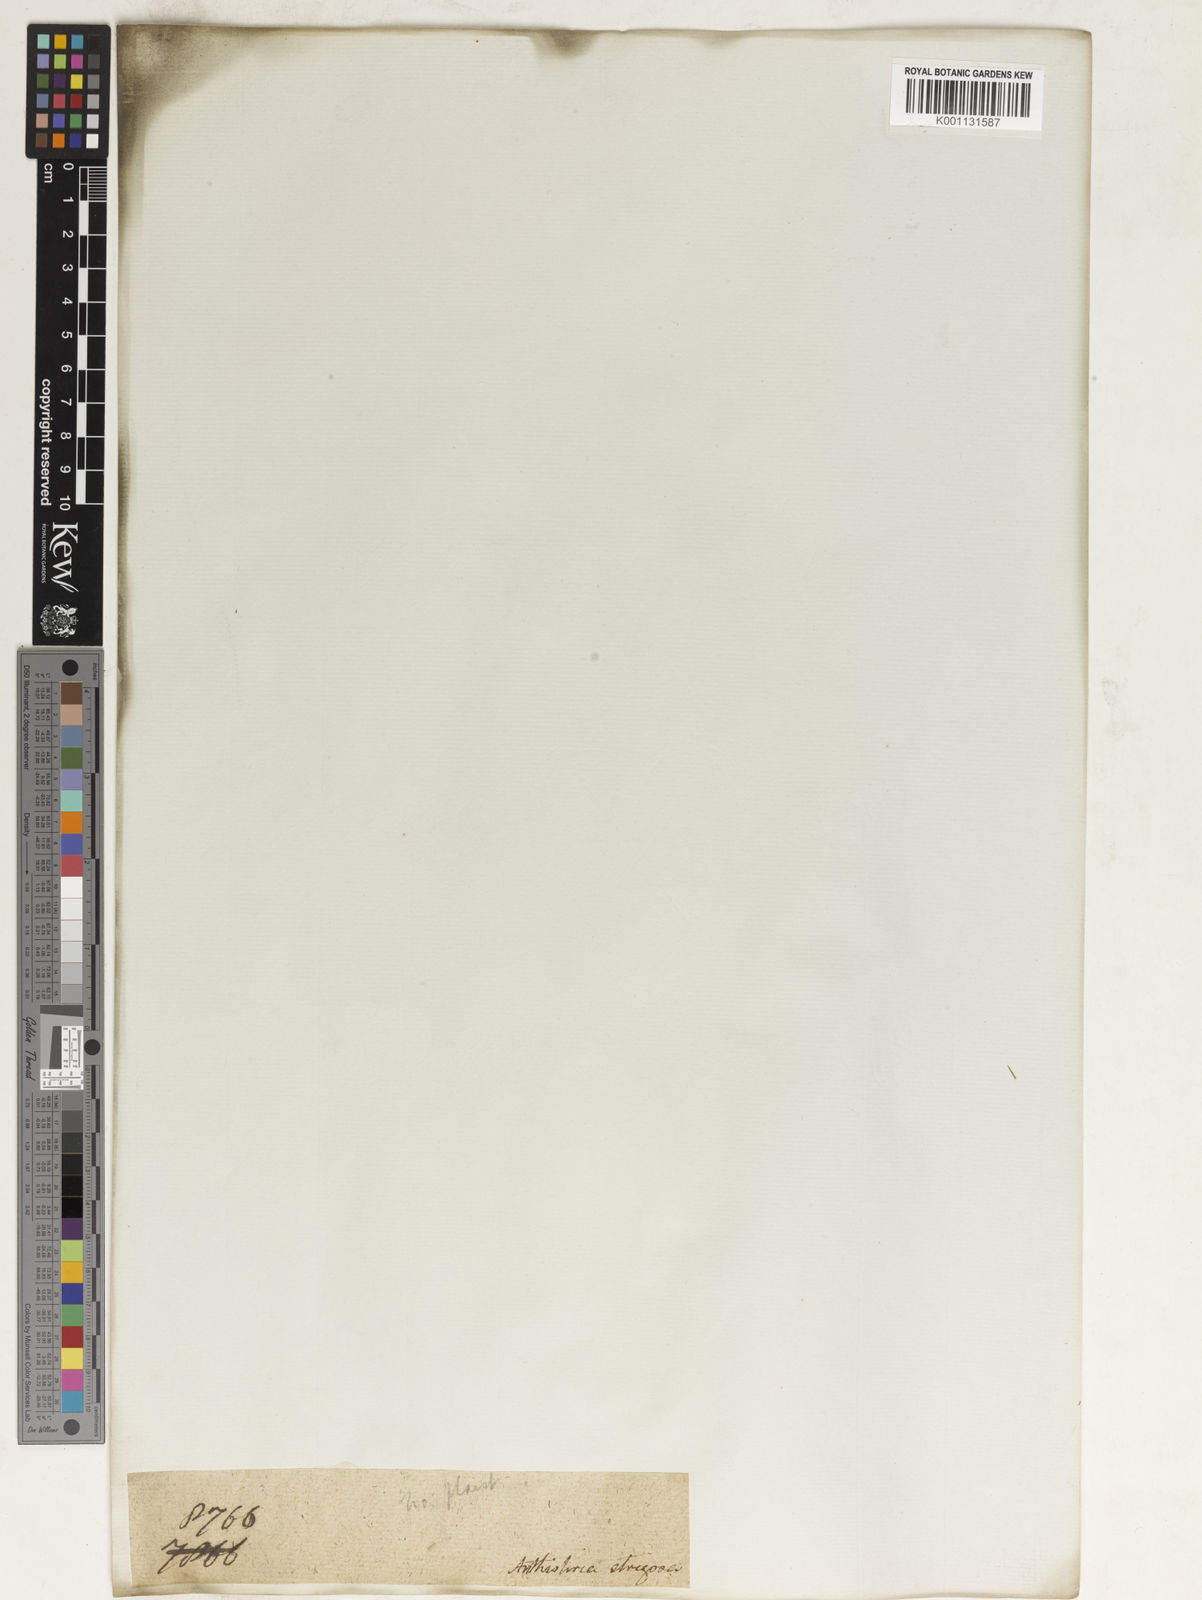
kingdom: Plantae
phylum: Tracheophyta
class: Liliopsida
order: Poales
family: Poaceae
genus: Themeda
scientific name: Themeda
